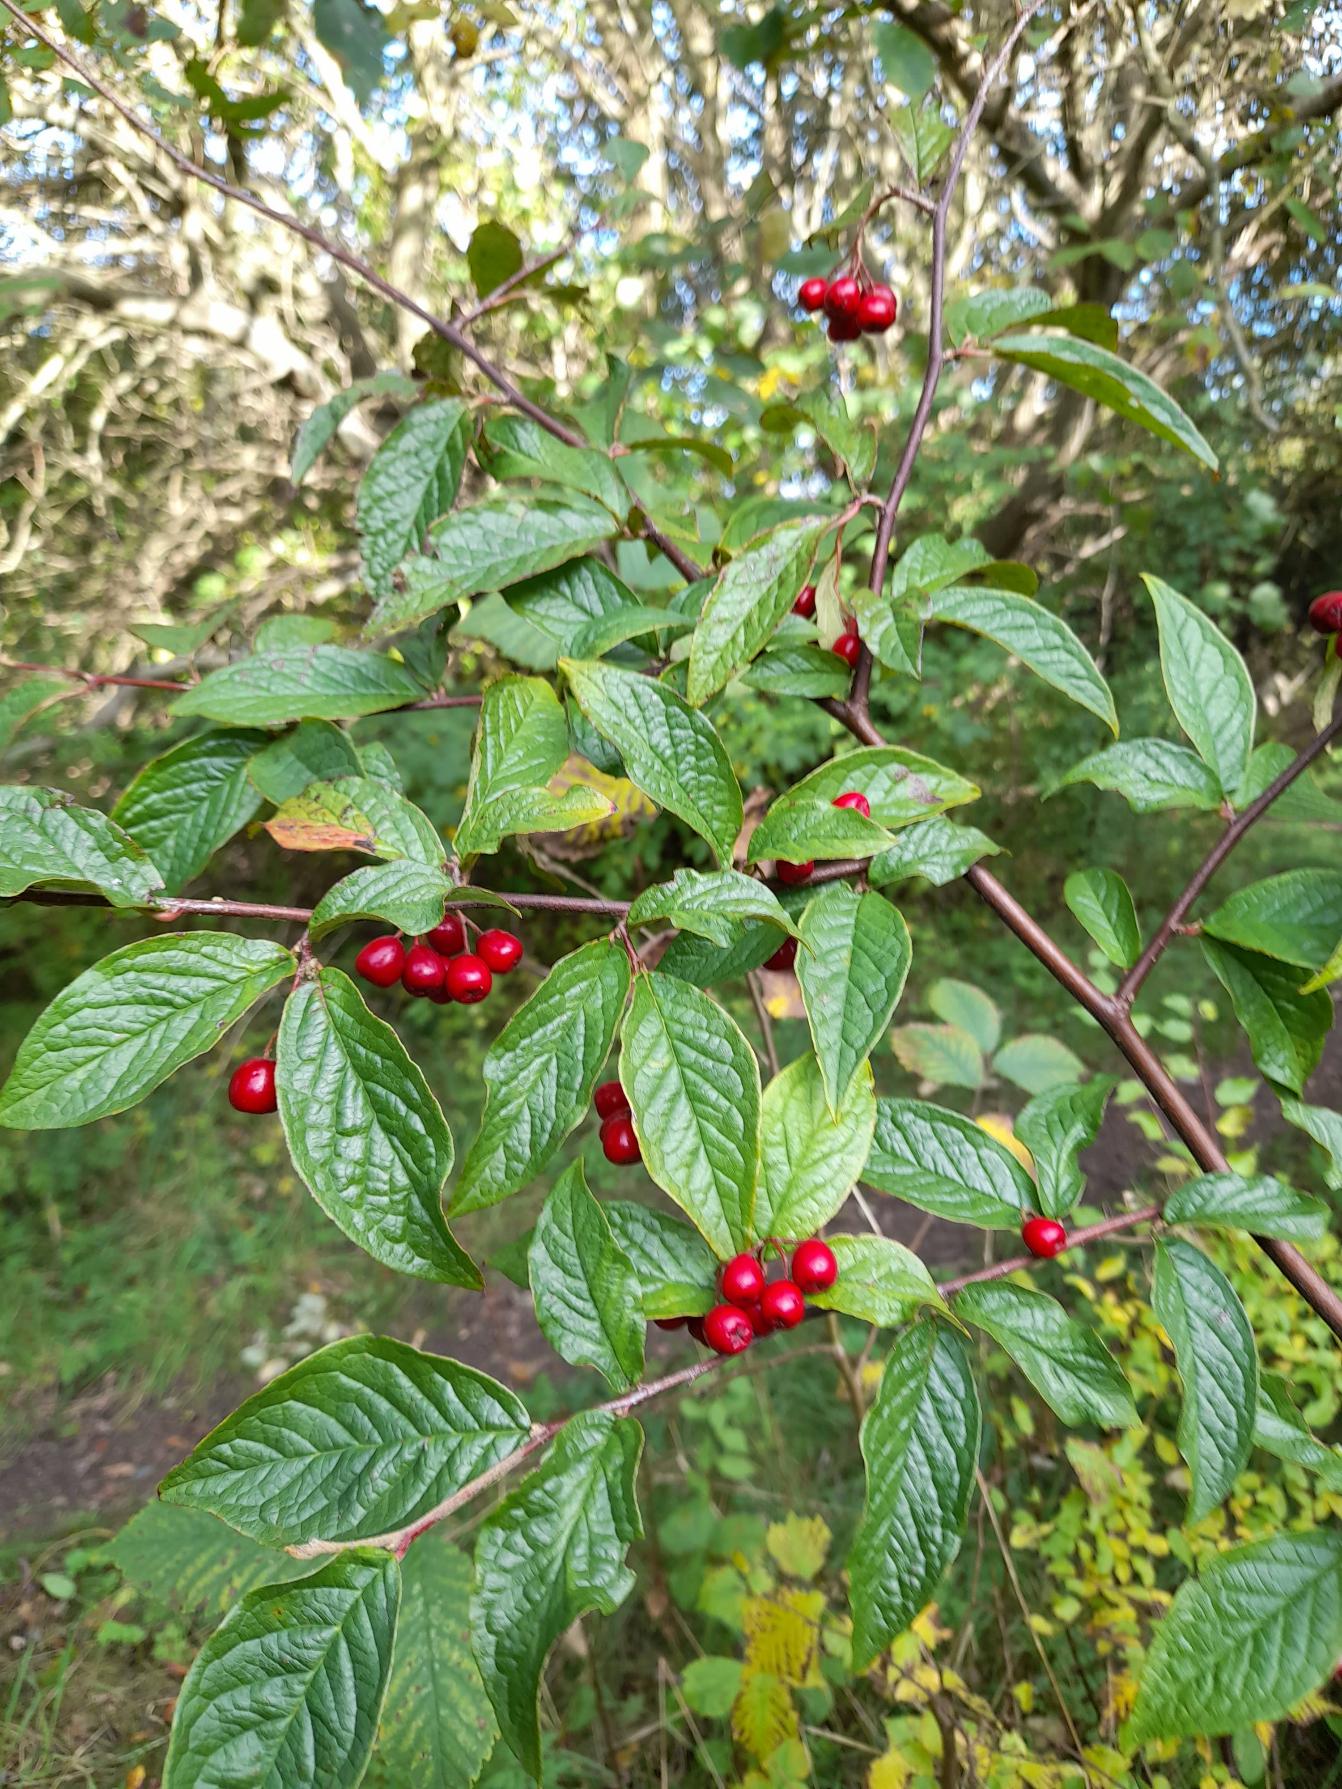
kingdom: Plantae
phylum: Tracheophyta
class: Magnoliopsida
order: Rosales
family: Rosaceae
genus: Cotoneaster
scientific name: Cotoneaster bullatus
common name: Buklet dværgmispel
